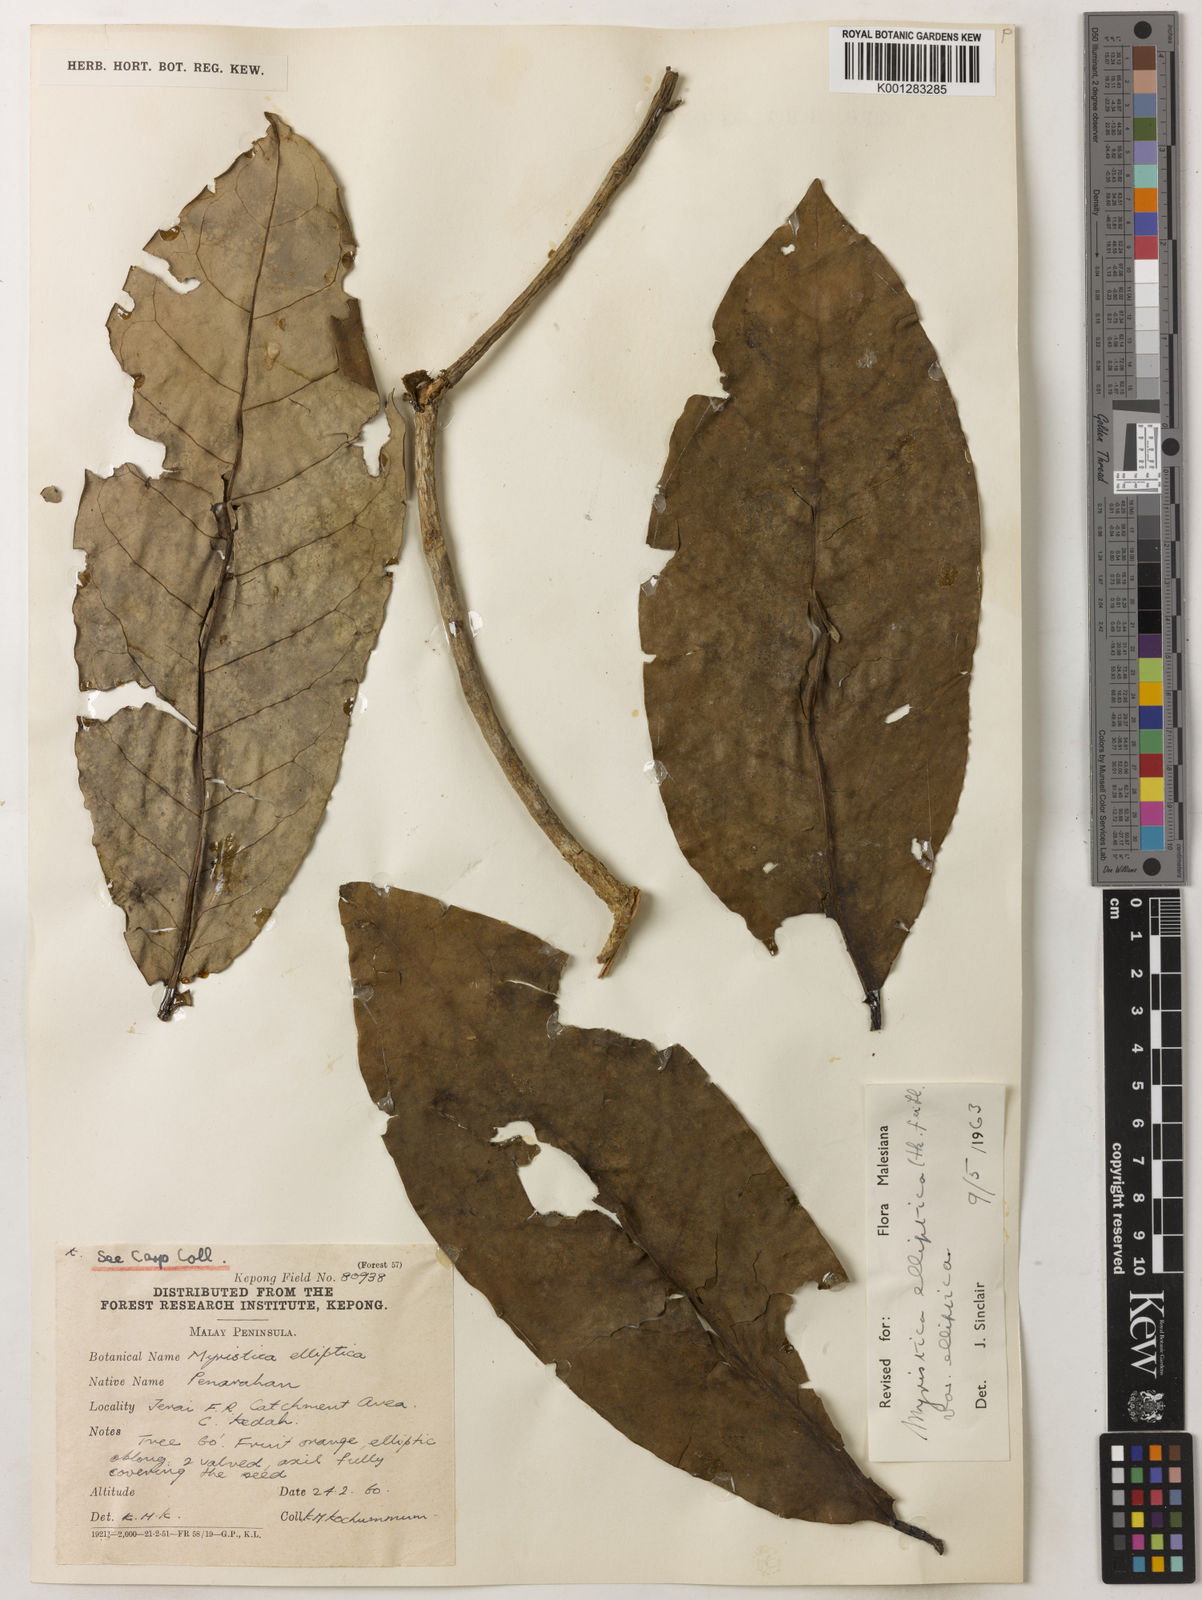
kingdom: Plantae
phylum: Tracheophyta
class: Magnoliopsida
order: Magnoliales
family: Myristicaceae
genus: Myristica
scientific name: Myristica elliptica
